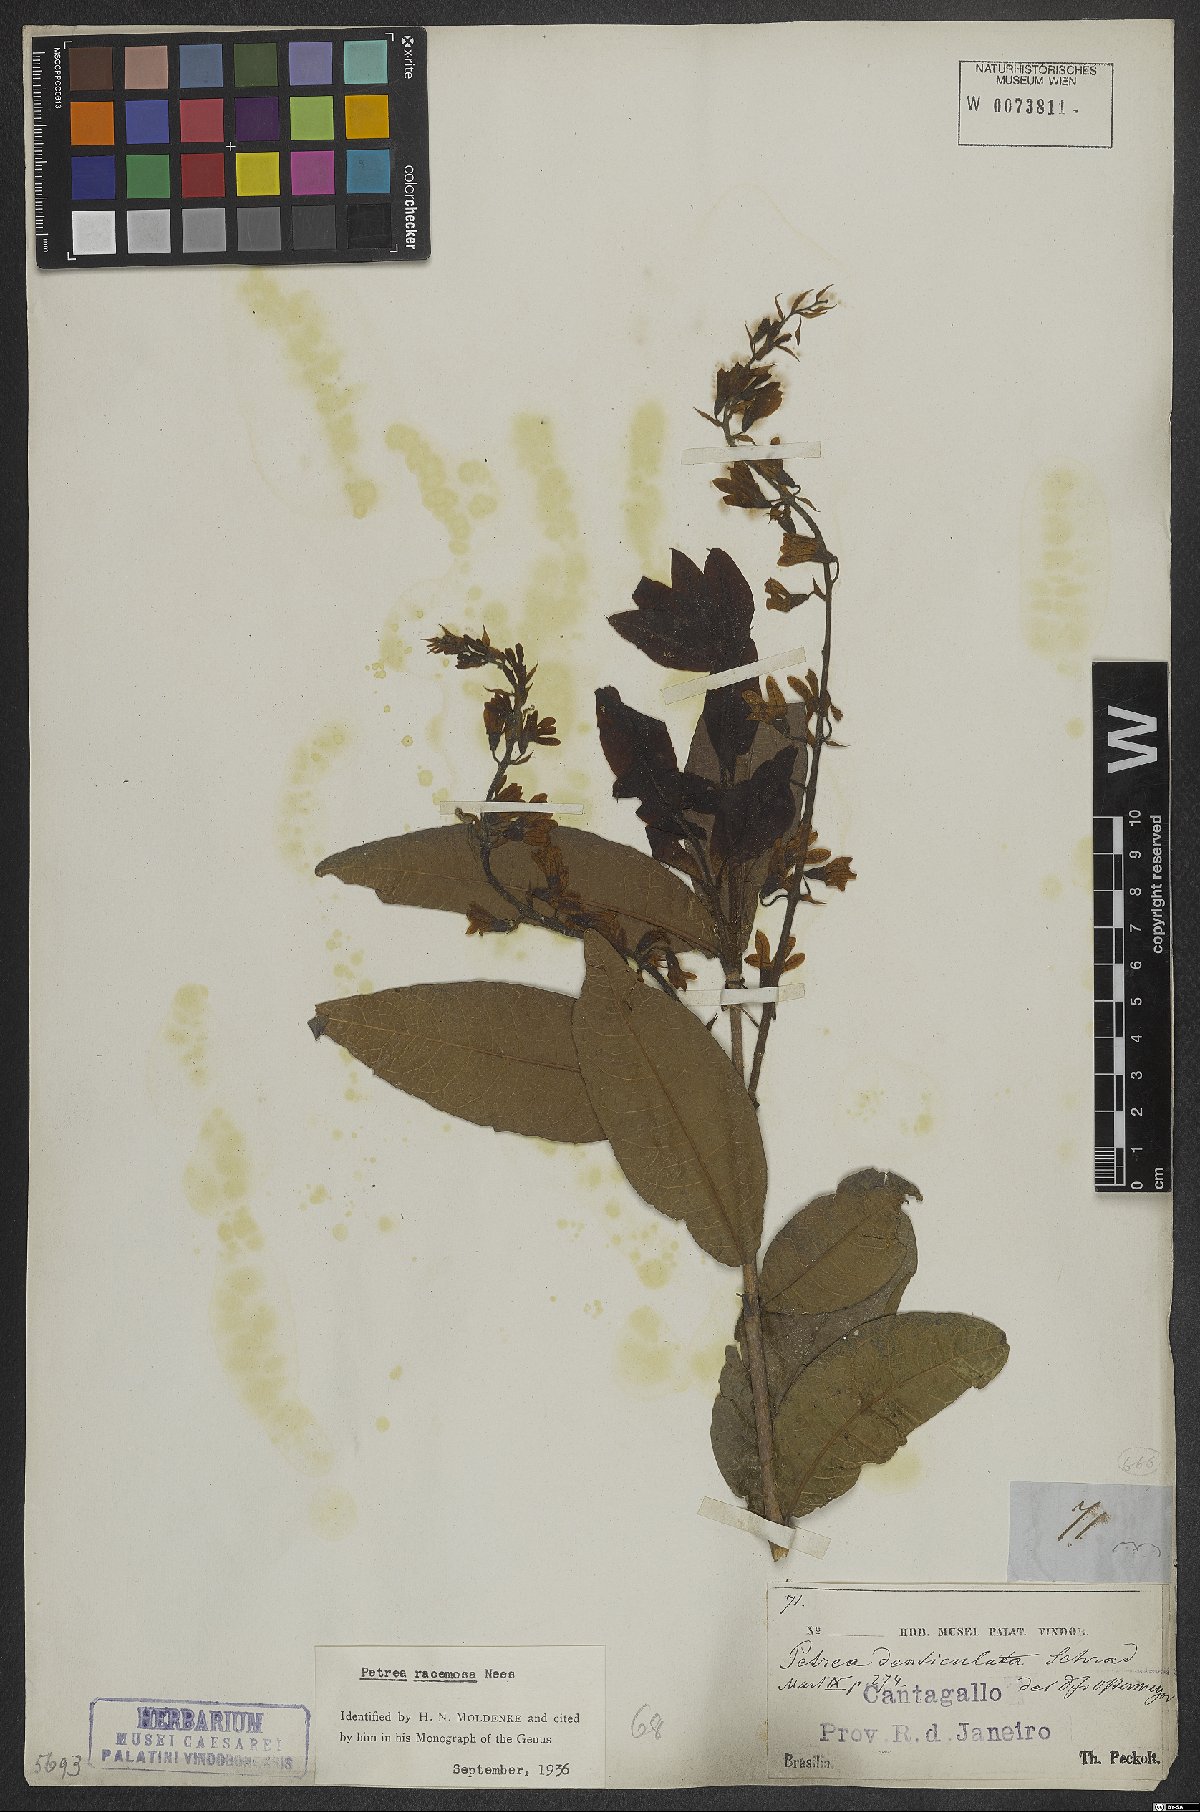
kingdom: Plantae
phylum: Tracheophyta
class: Magnoliopsida
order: Lamiales
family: Verbenaceae
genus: Petrea
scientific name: Petrea volubilis
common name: Queen's-wreath
